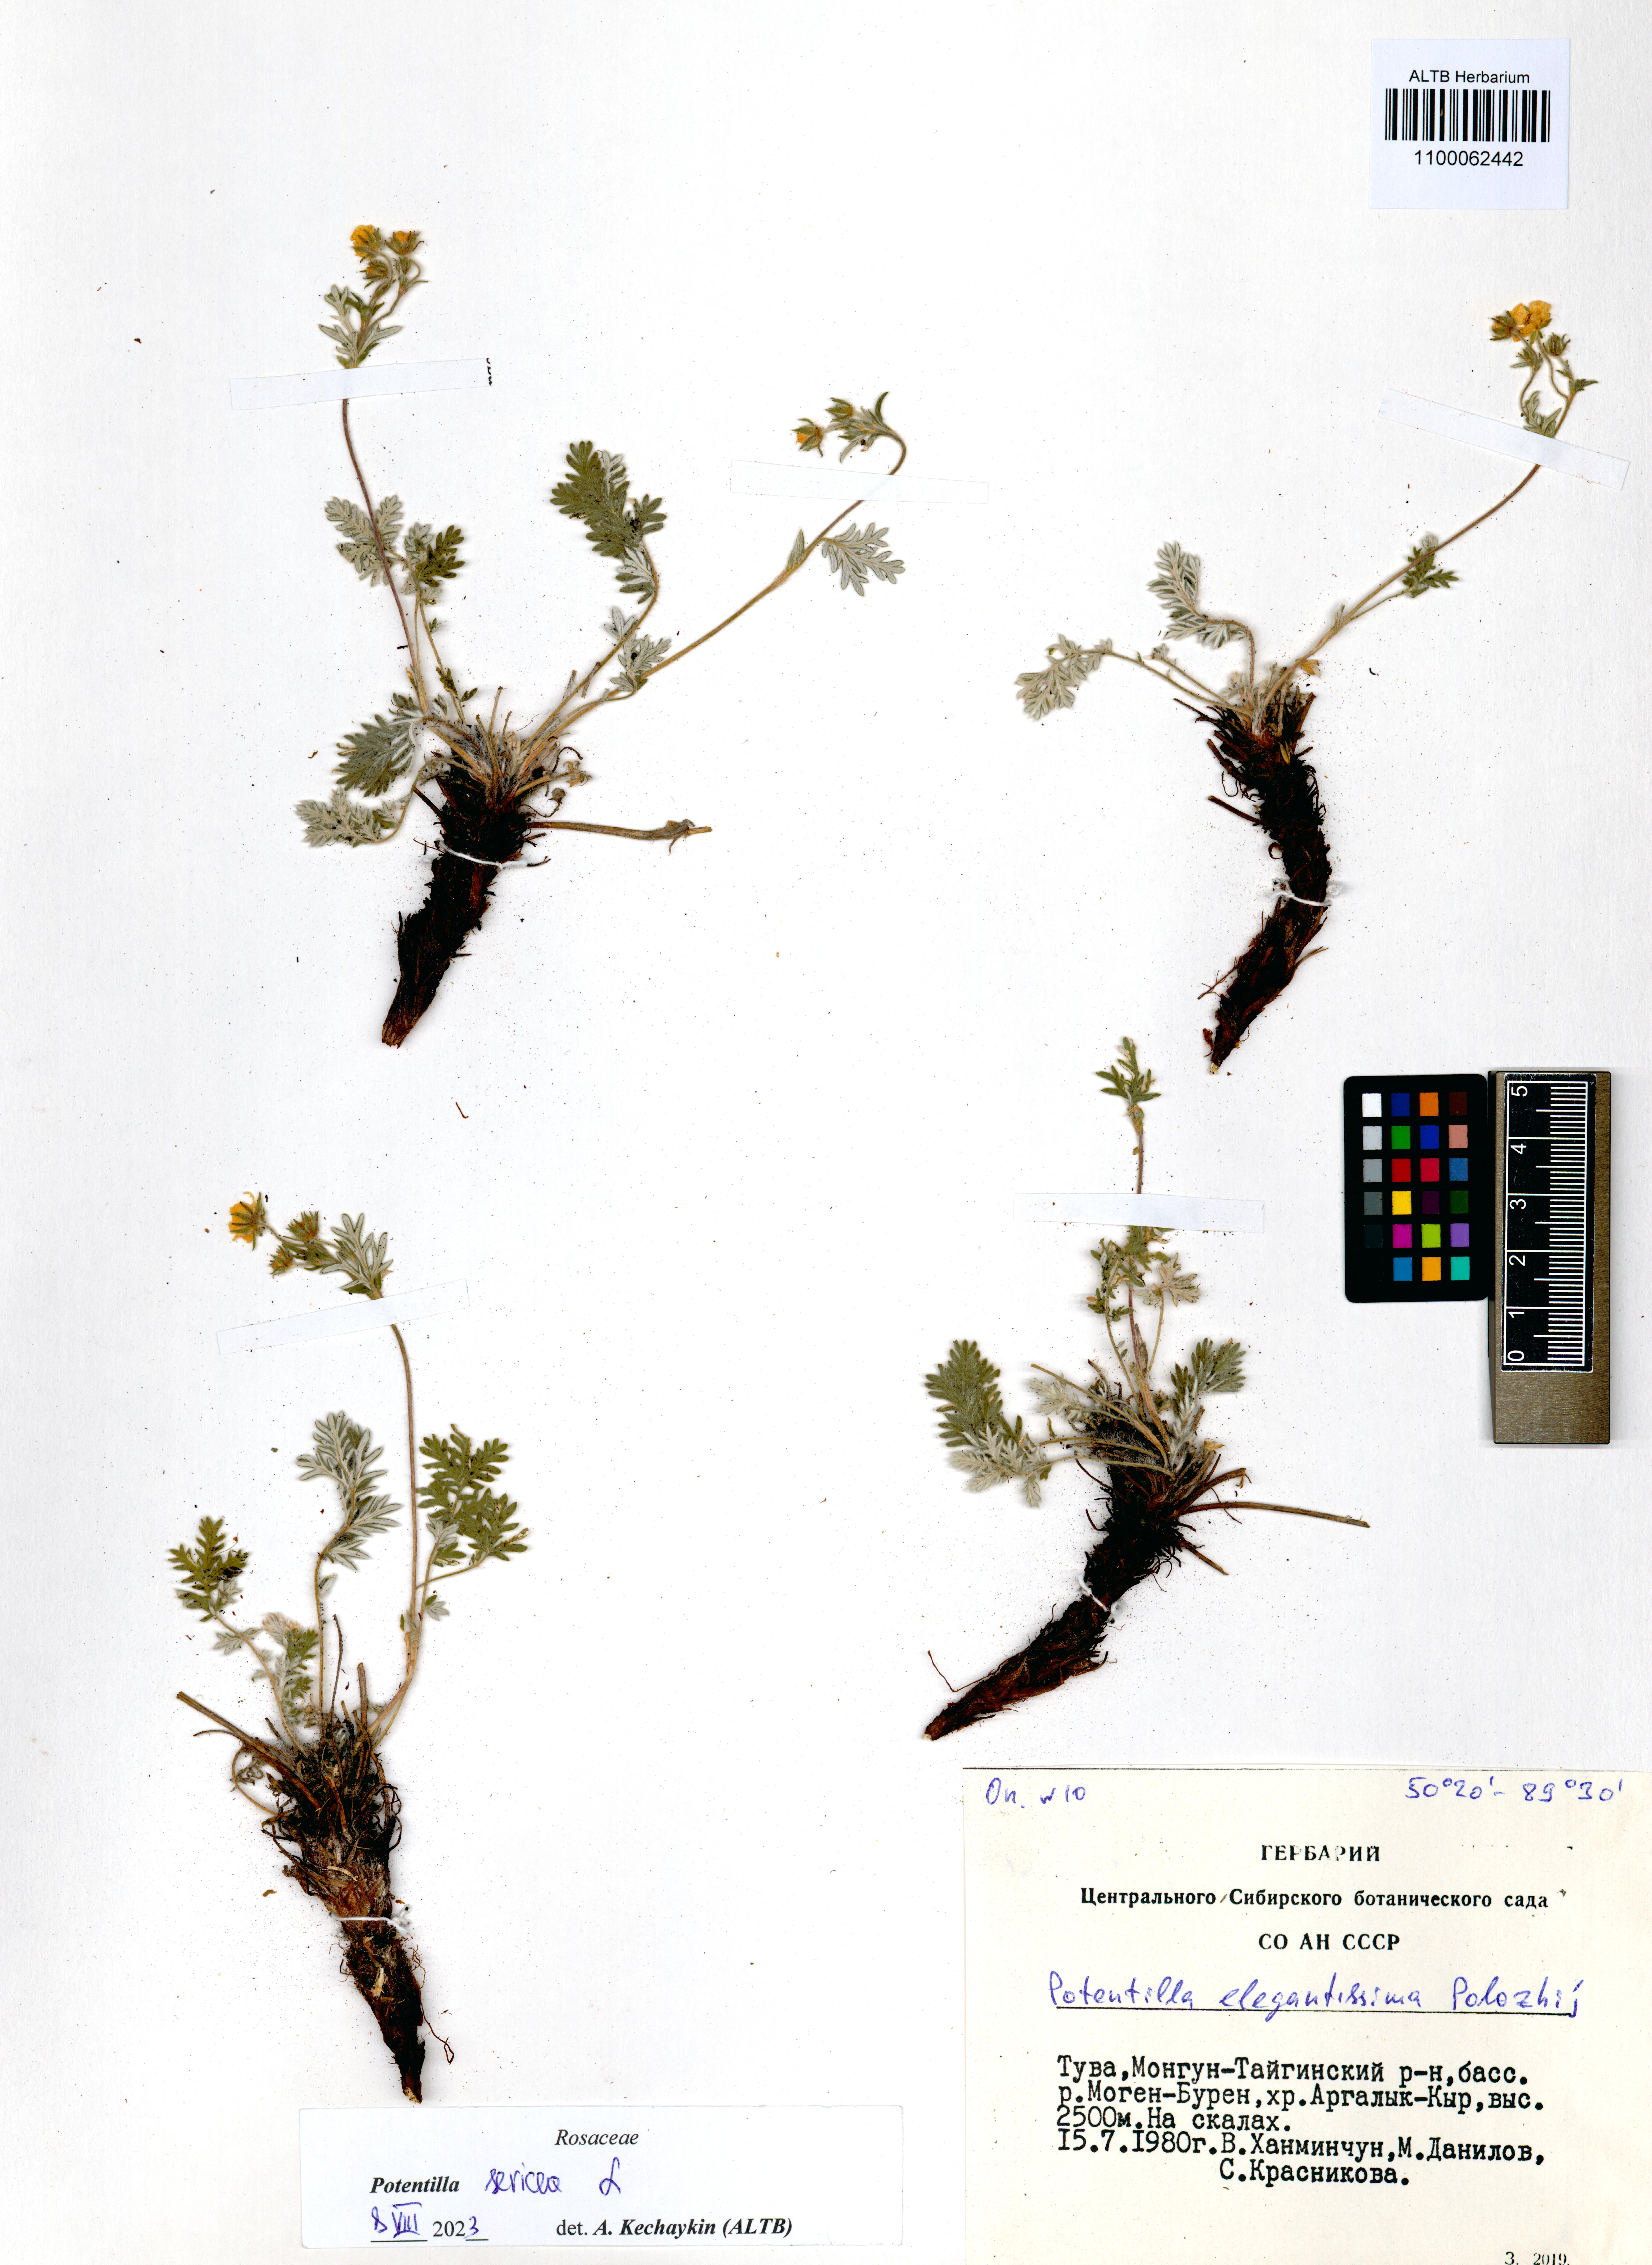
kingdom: Plantae
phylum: Tracheophyta
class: Magnoliopsida
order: Rosales
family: Rosaceae
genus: Potentilla
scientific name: Potentilla sericea
